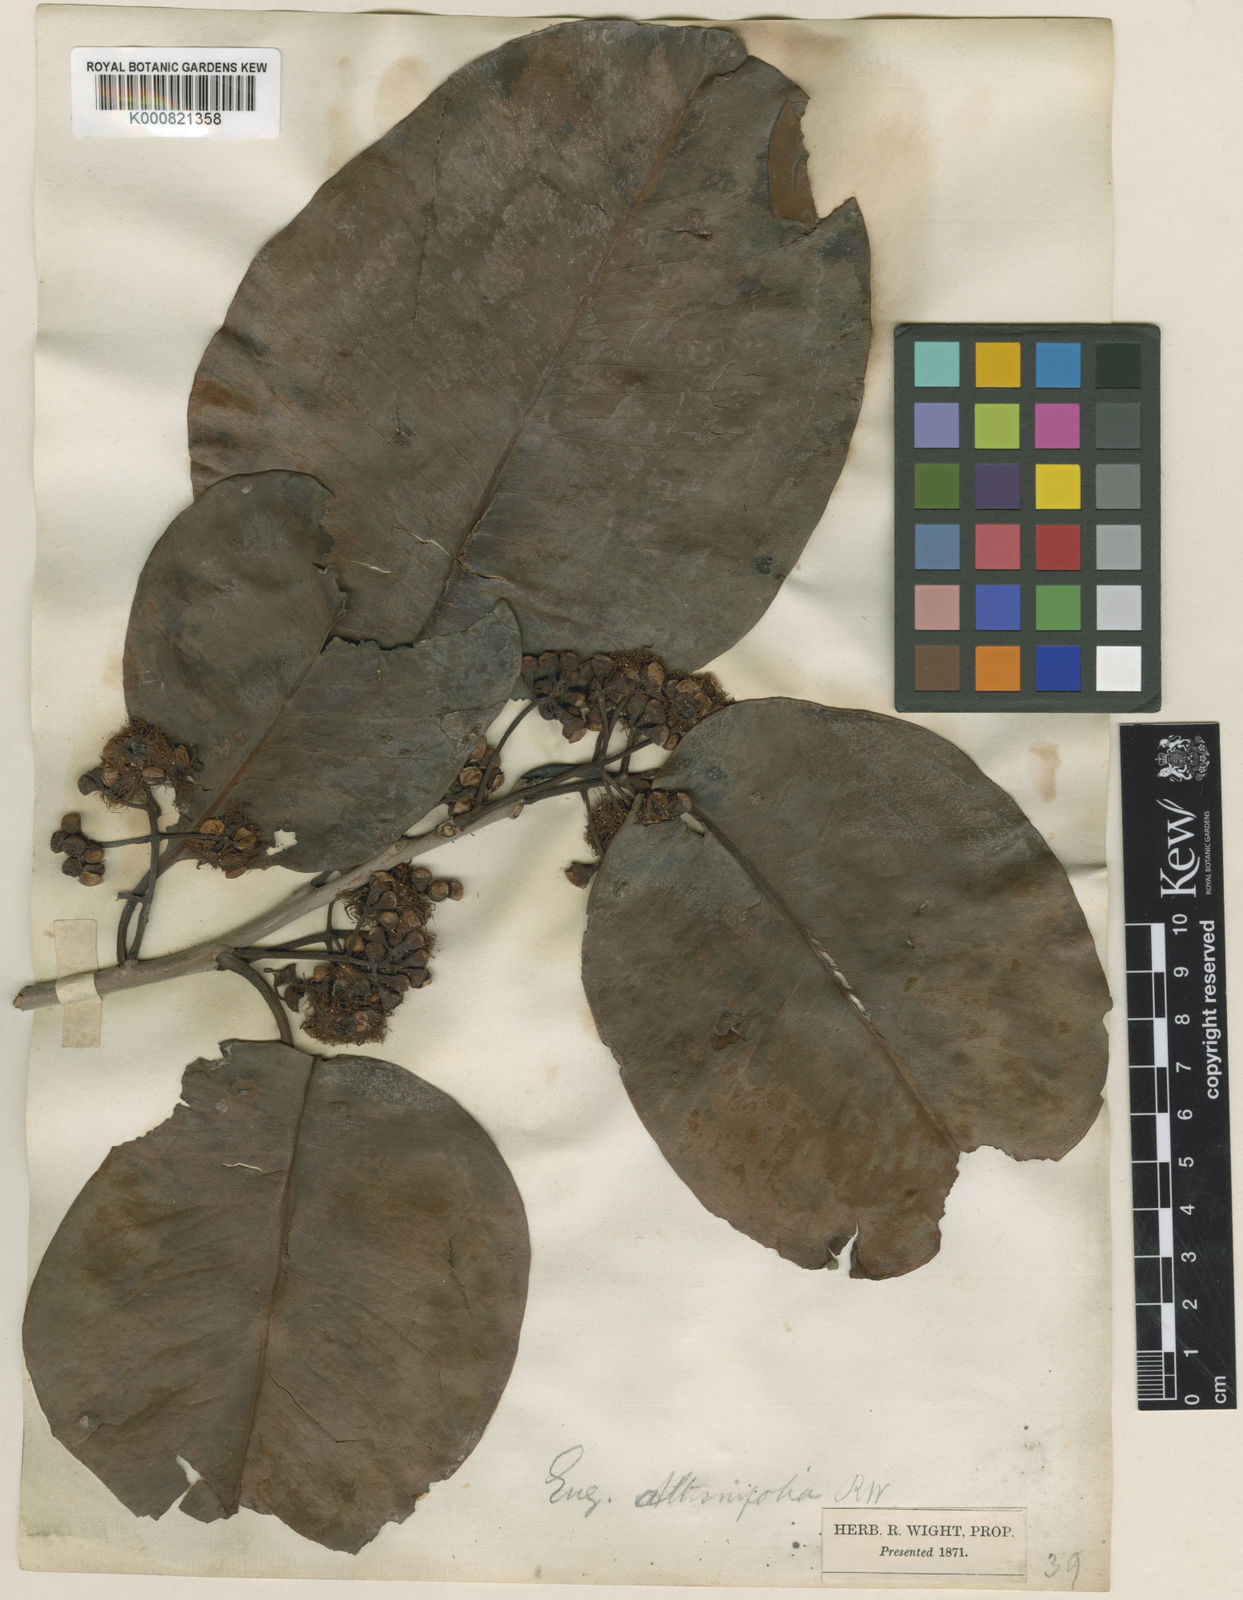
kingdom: Plantae
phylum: Tracheophyta
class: Magnoliopsida
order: Myrtales
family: Myrtaceae
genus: Syzygium
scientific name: Syzygium alternifolium
